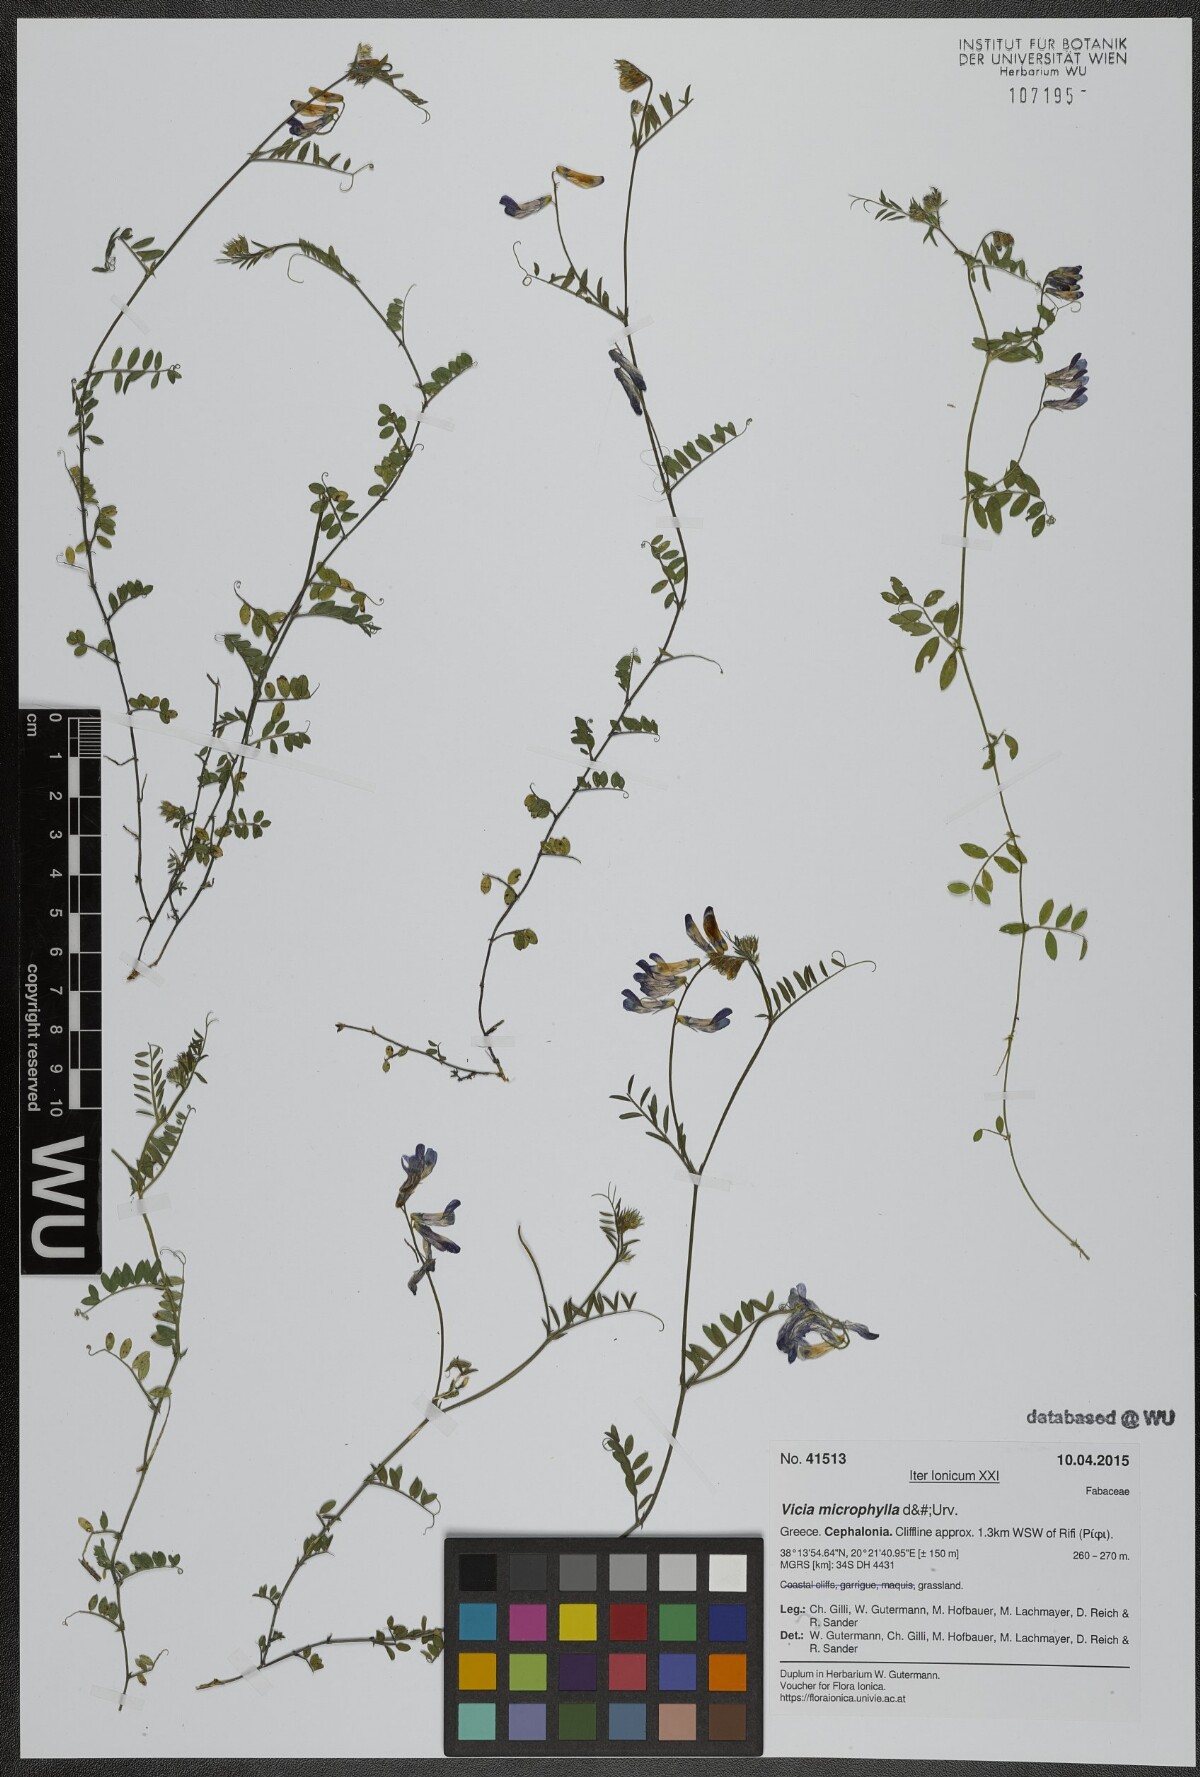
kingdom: Plantae
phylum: Tracheophyta
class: Magnoliopsida
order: Fabales
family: Fabaceae
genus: Vicia
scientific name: Vicia villosa
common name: Fodder vetch
